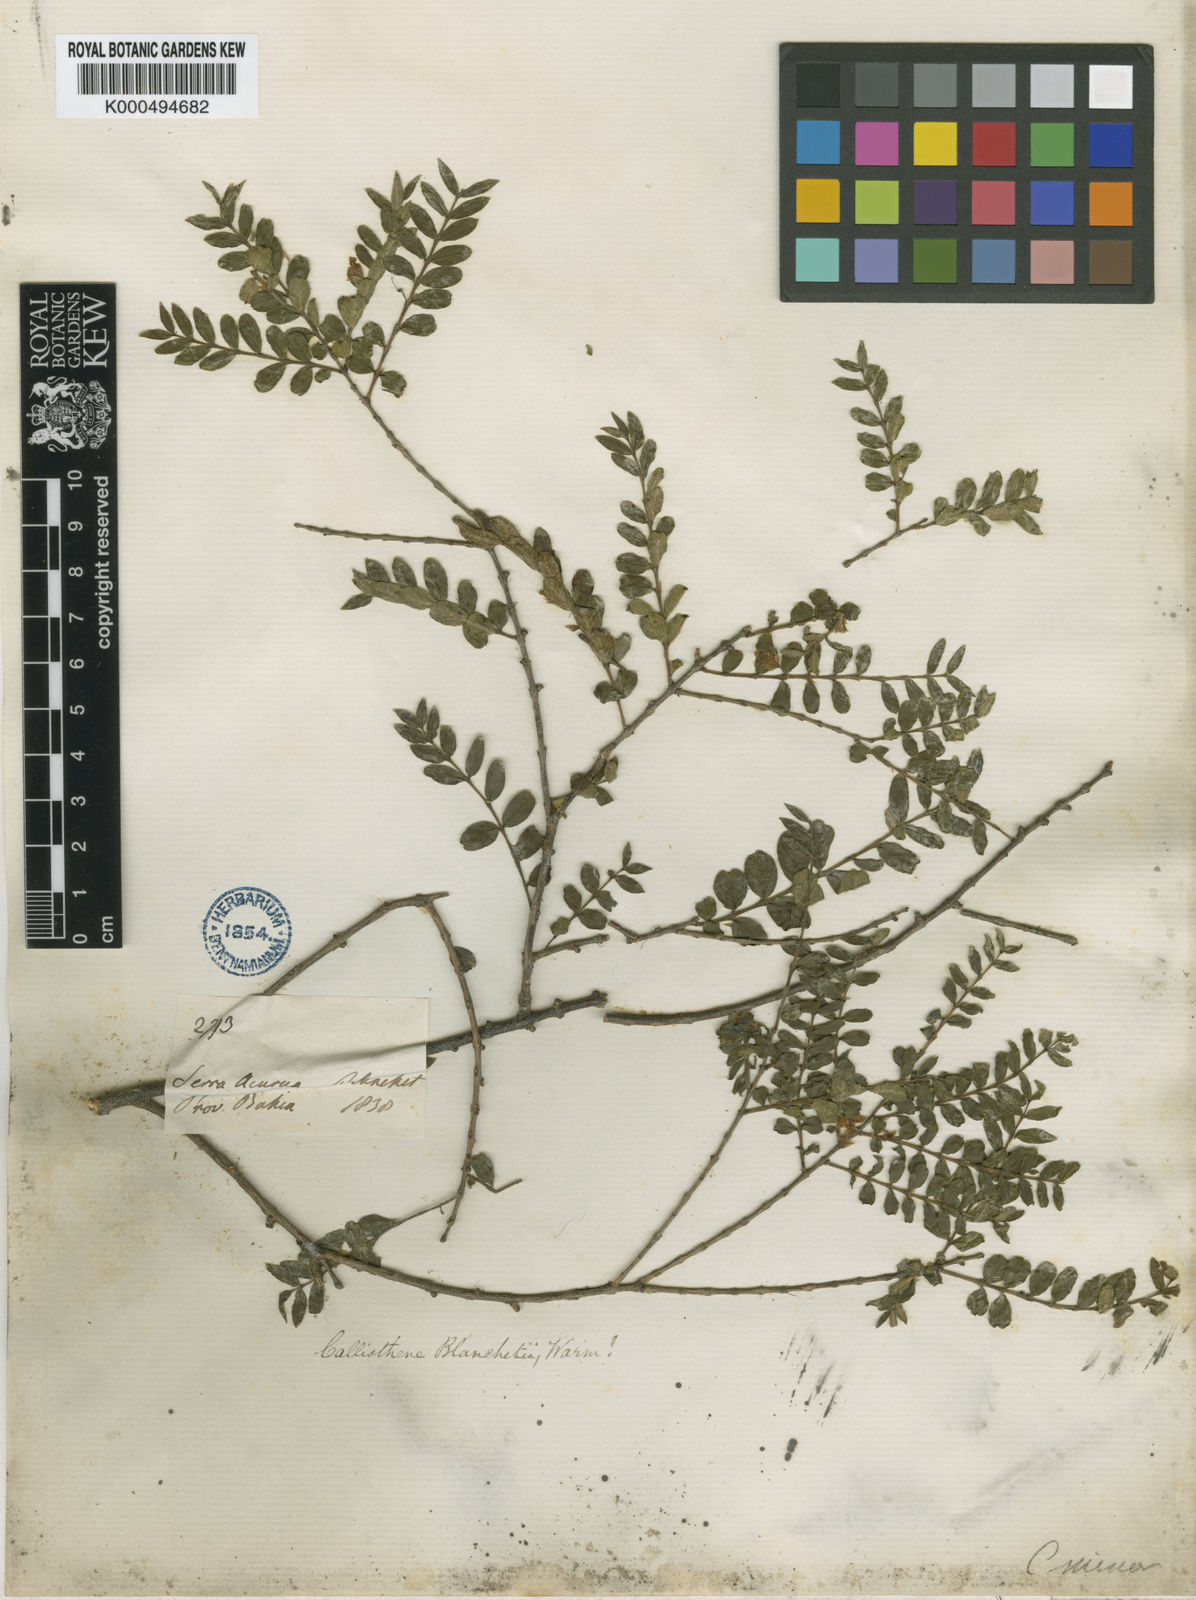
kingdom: Plantae
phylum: Tracheophyta
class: Magnoliopsida
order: Myrtales
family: Vochysiaceae
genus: Callisthene
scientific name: Callisthene minor
